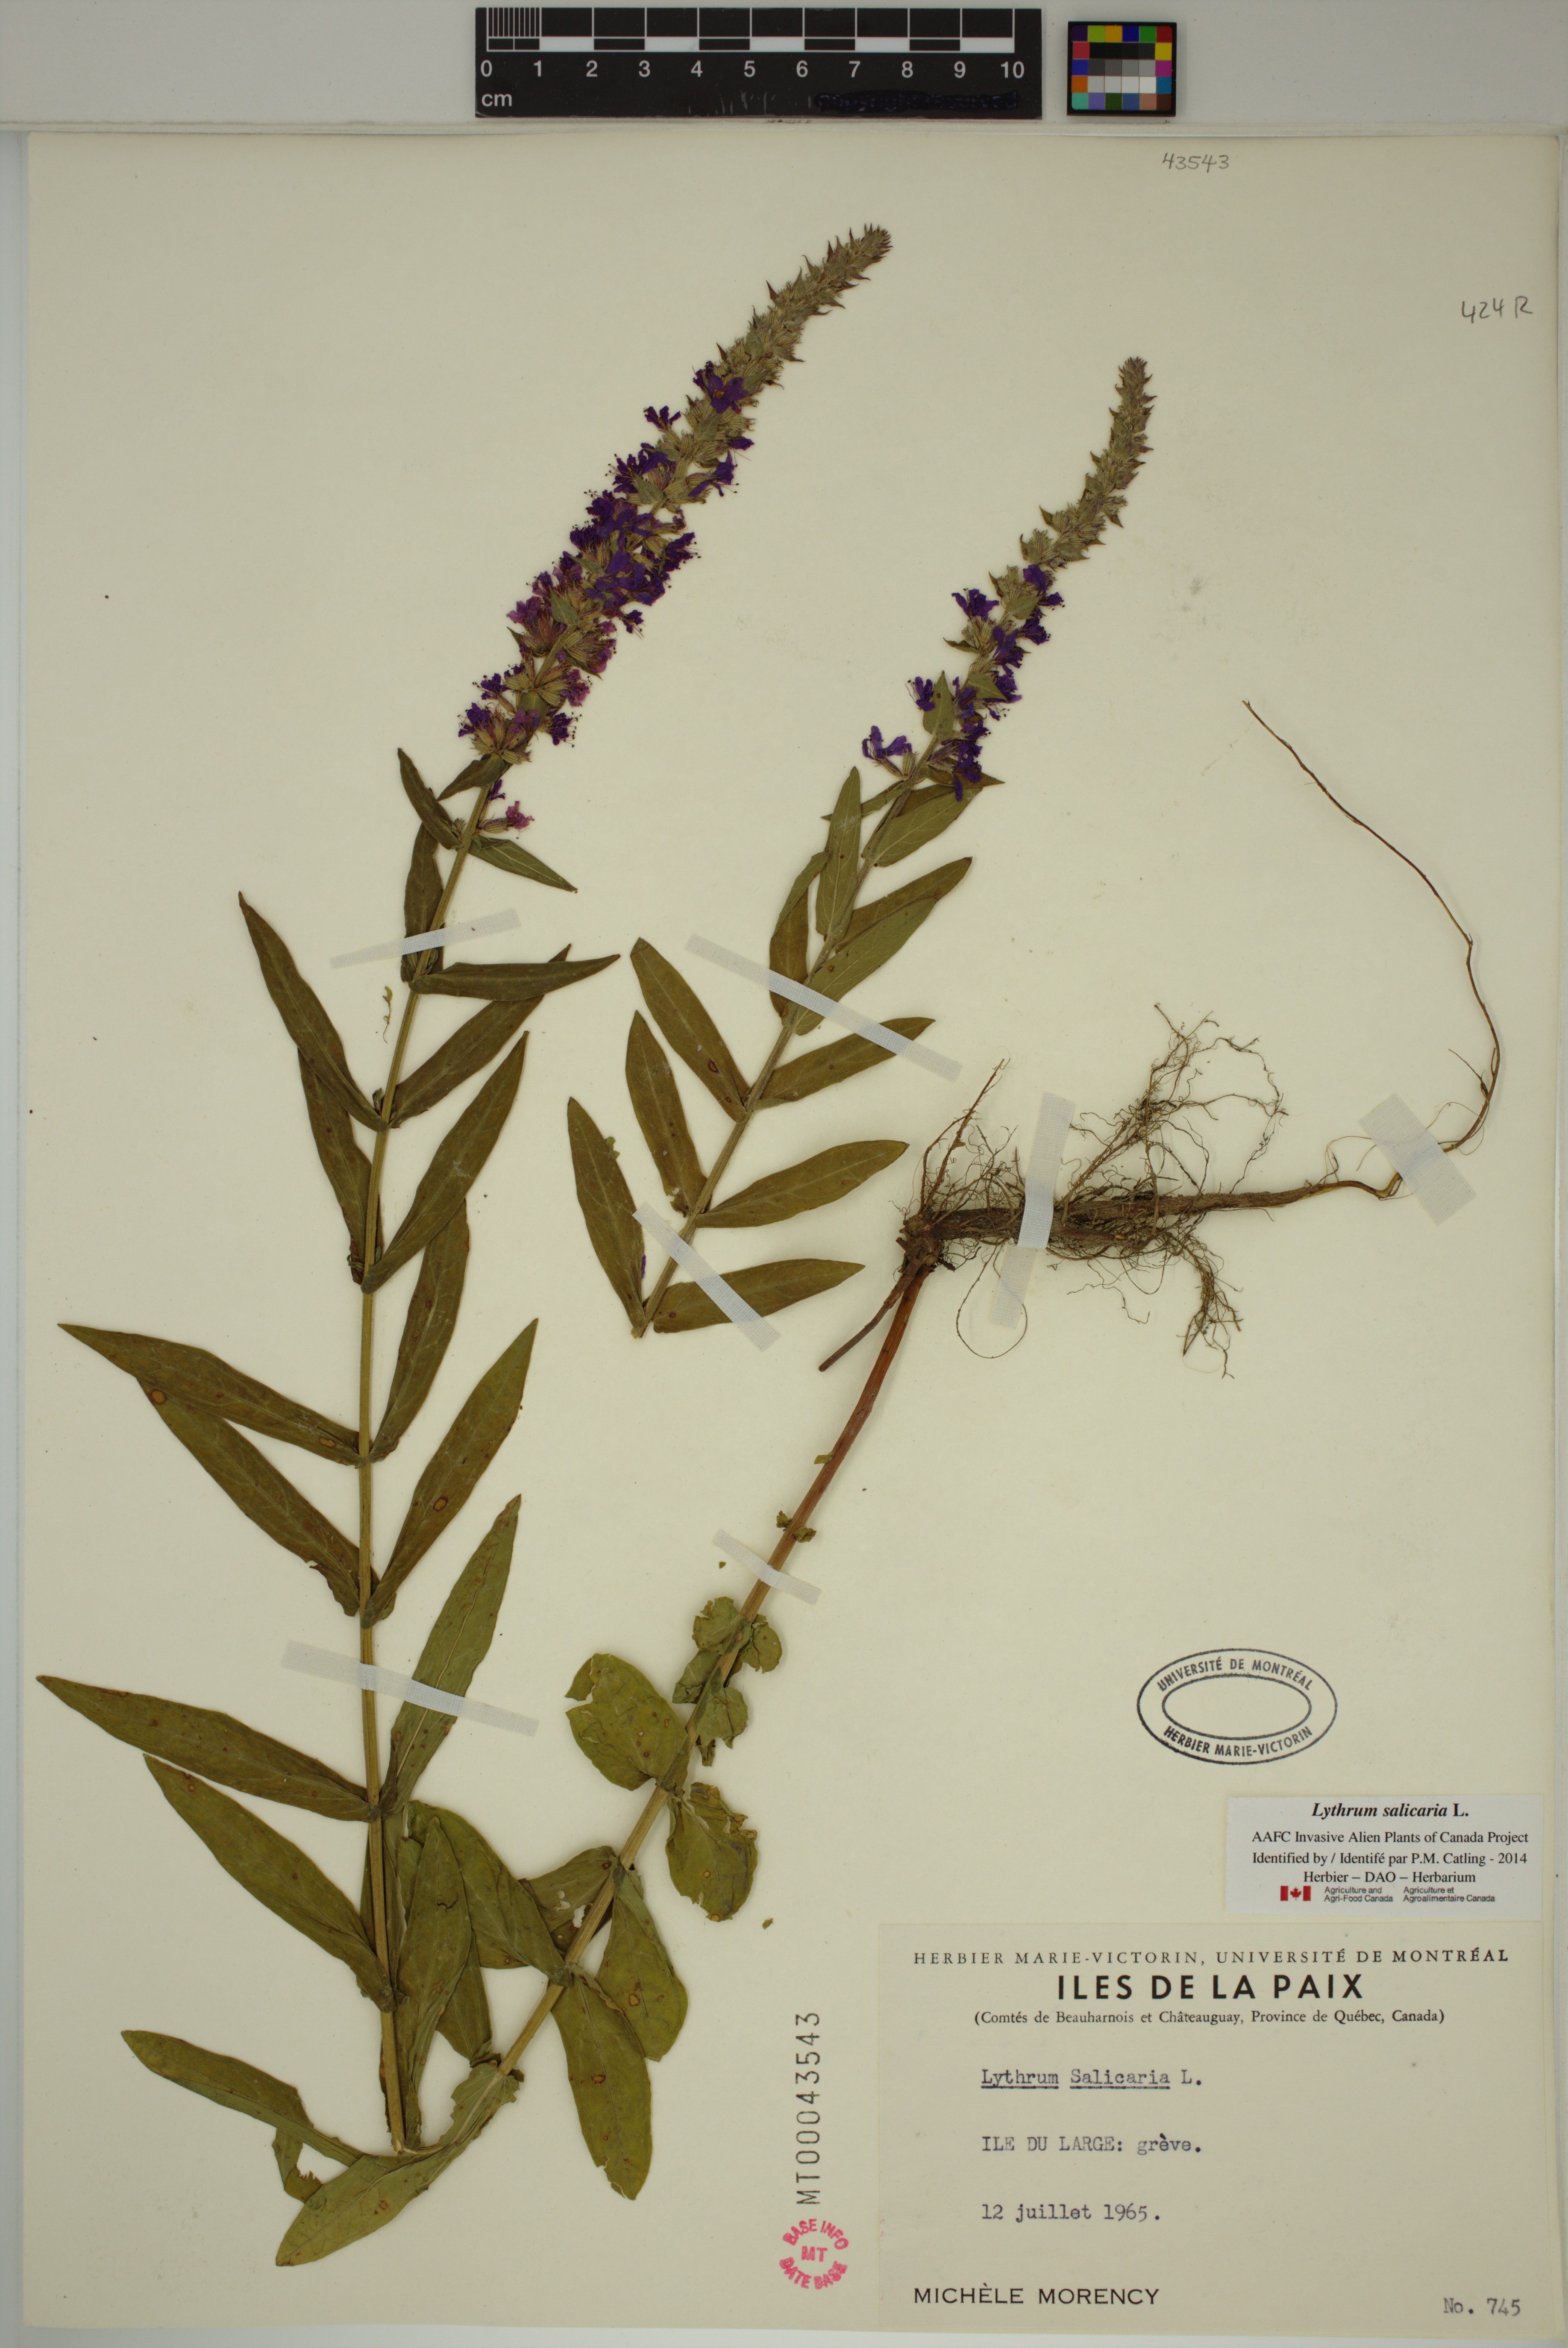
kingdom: Plantae
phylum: Tracheophyta
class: Magnoliopsida
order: Myrtales
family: Lythraceae
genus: Lythrum
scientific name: Lythrum salicaria
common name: Purple loosestrife
